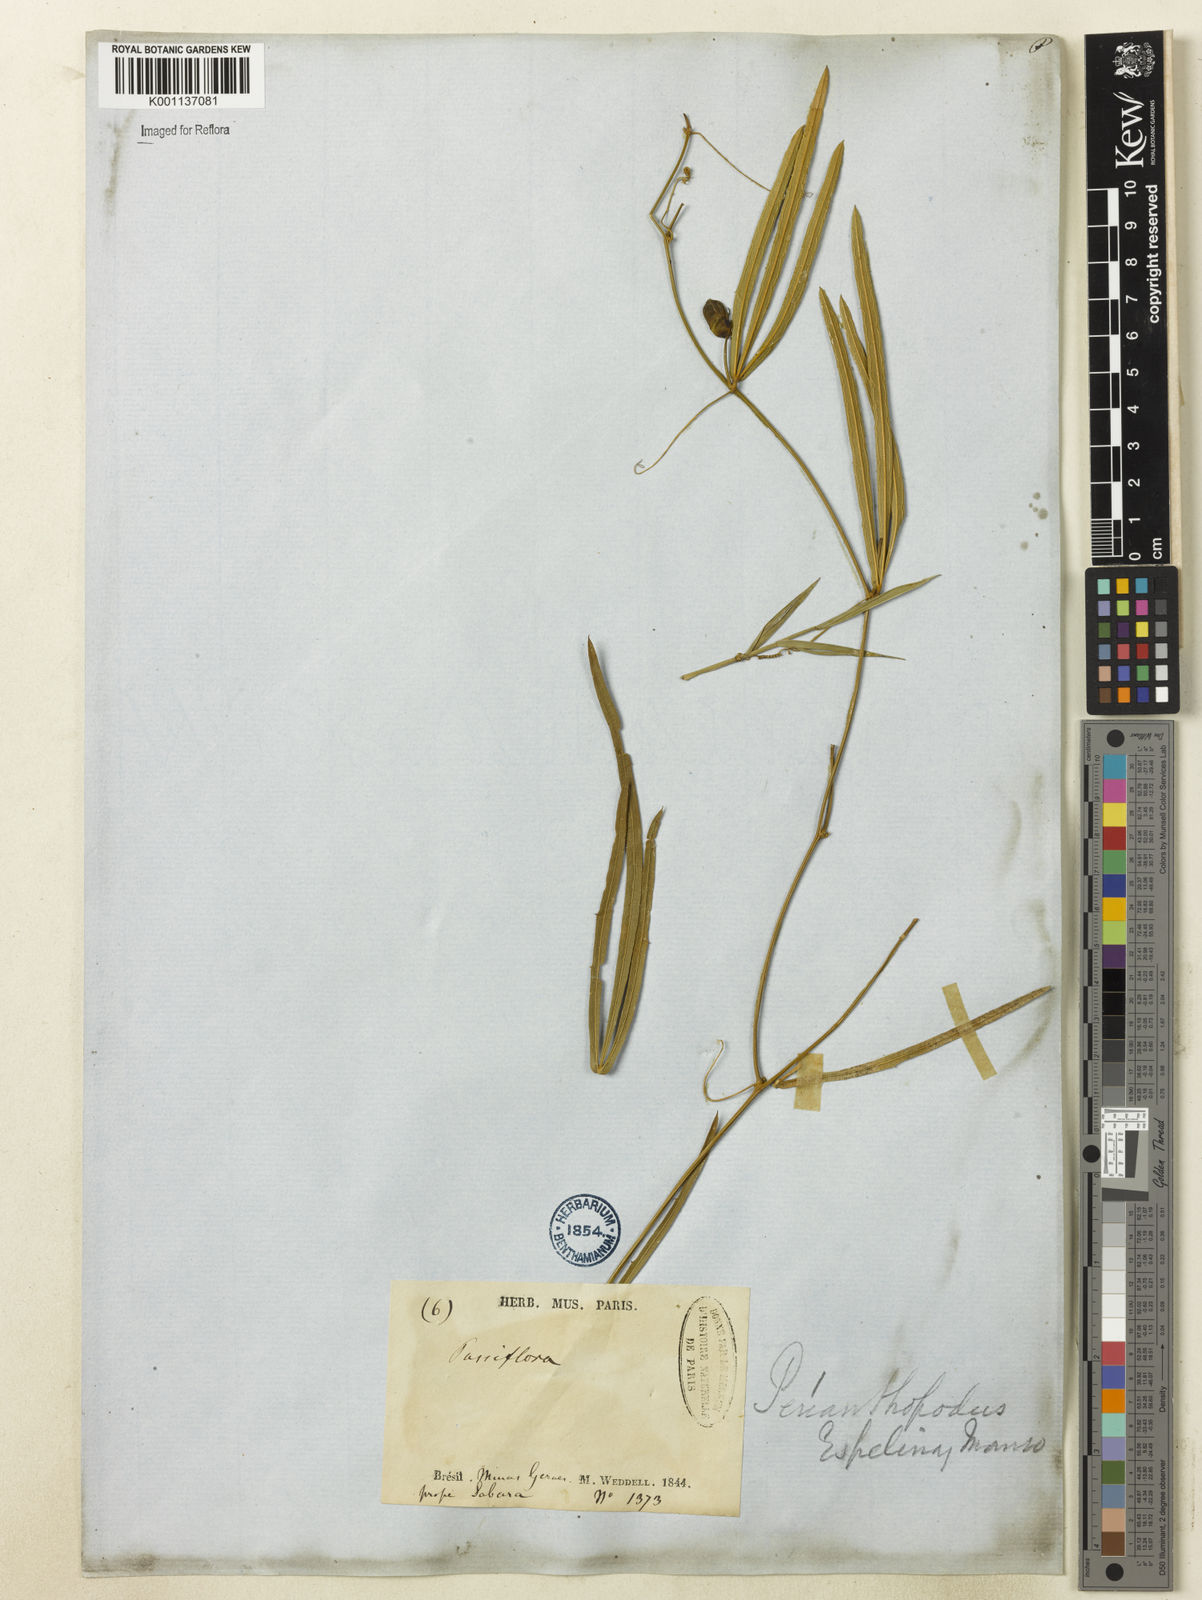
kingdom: Plantae
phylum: Tracheophyta
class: Magnoliopsida
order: Cucurbitales
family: Cucurbitaceae
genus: Cayaponia
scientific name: Cayaponia espelina
